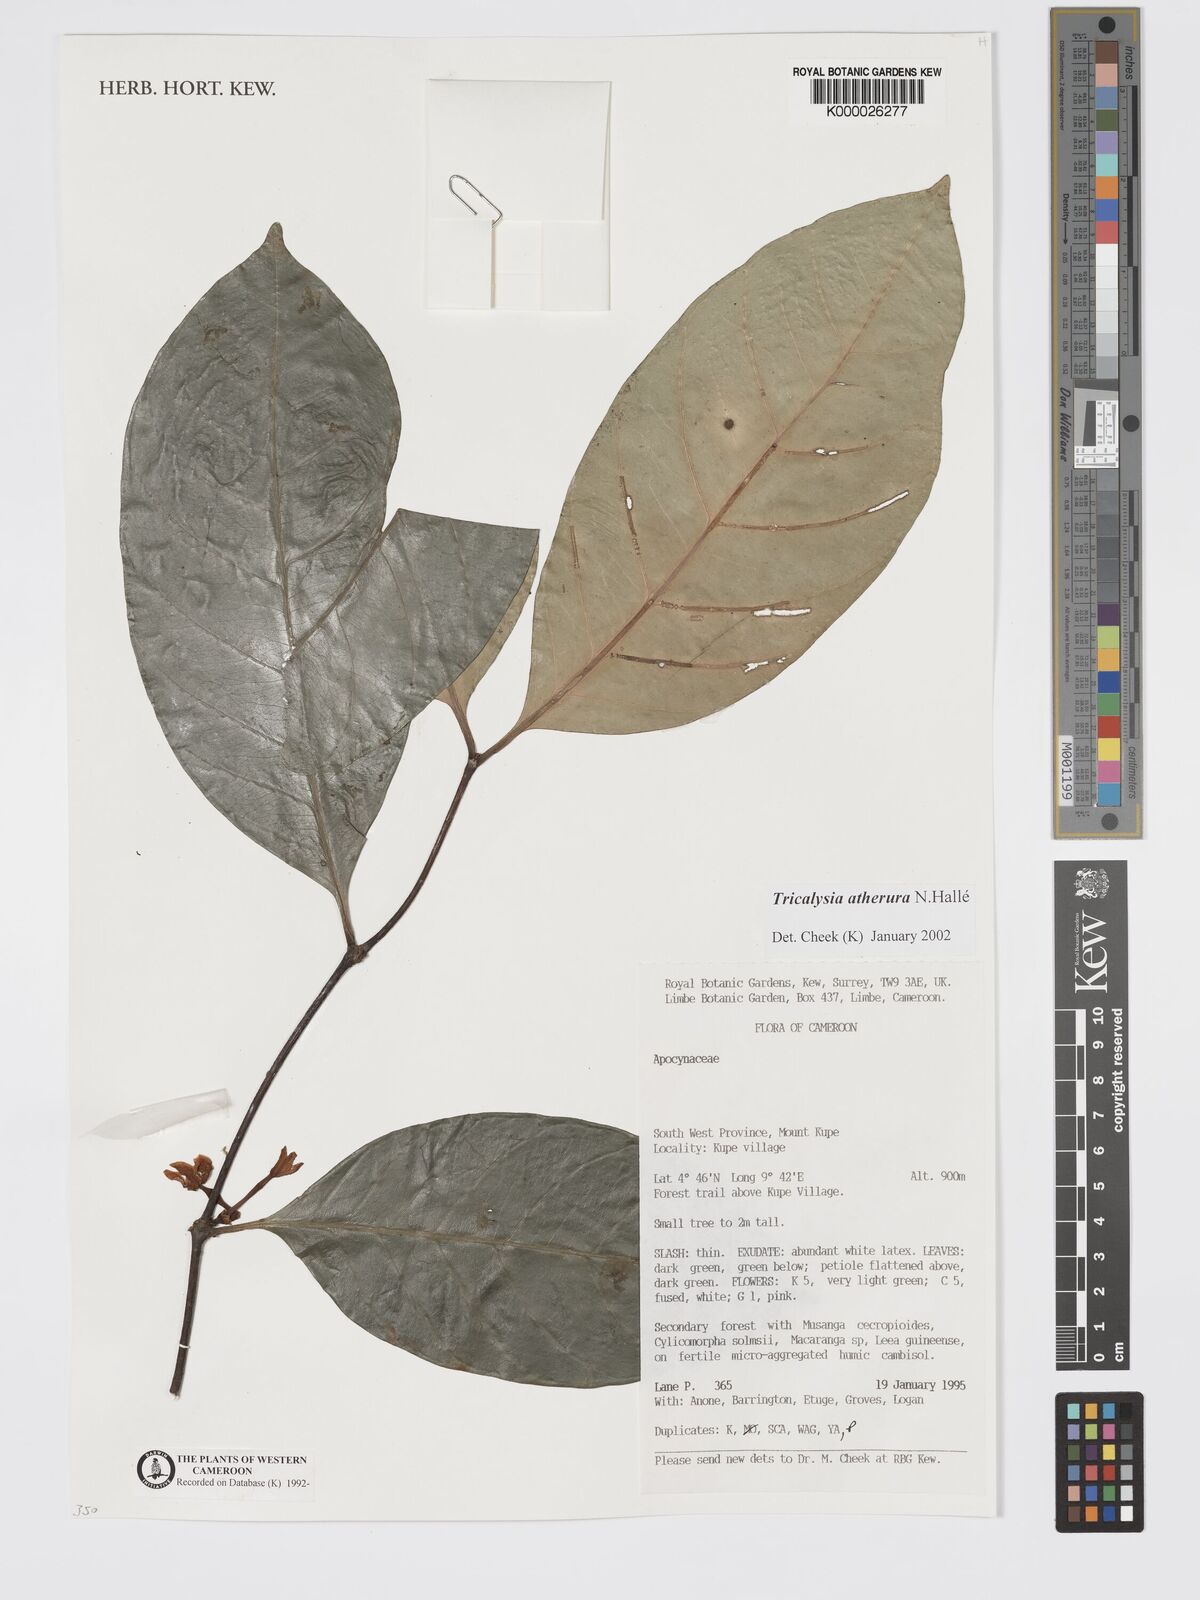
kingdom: Plantae
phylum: Tracheophyta
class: Magnoliopsida
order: Gentianales
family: Rubiaceae
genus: Tricalysia
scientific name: Tricalysia
